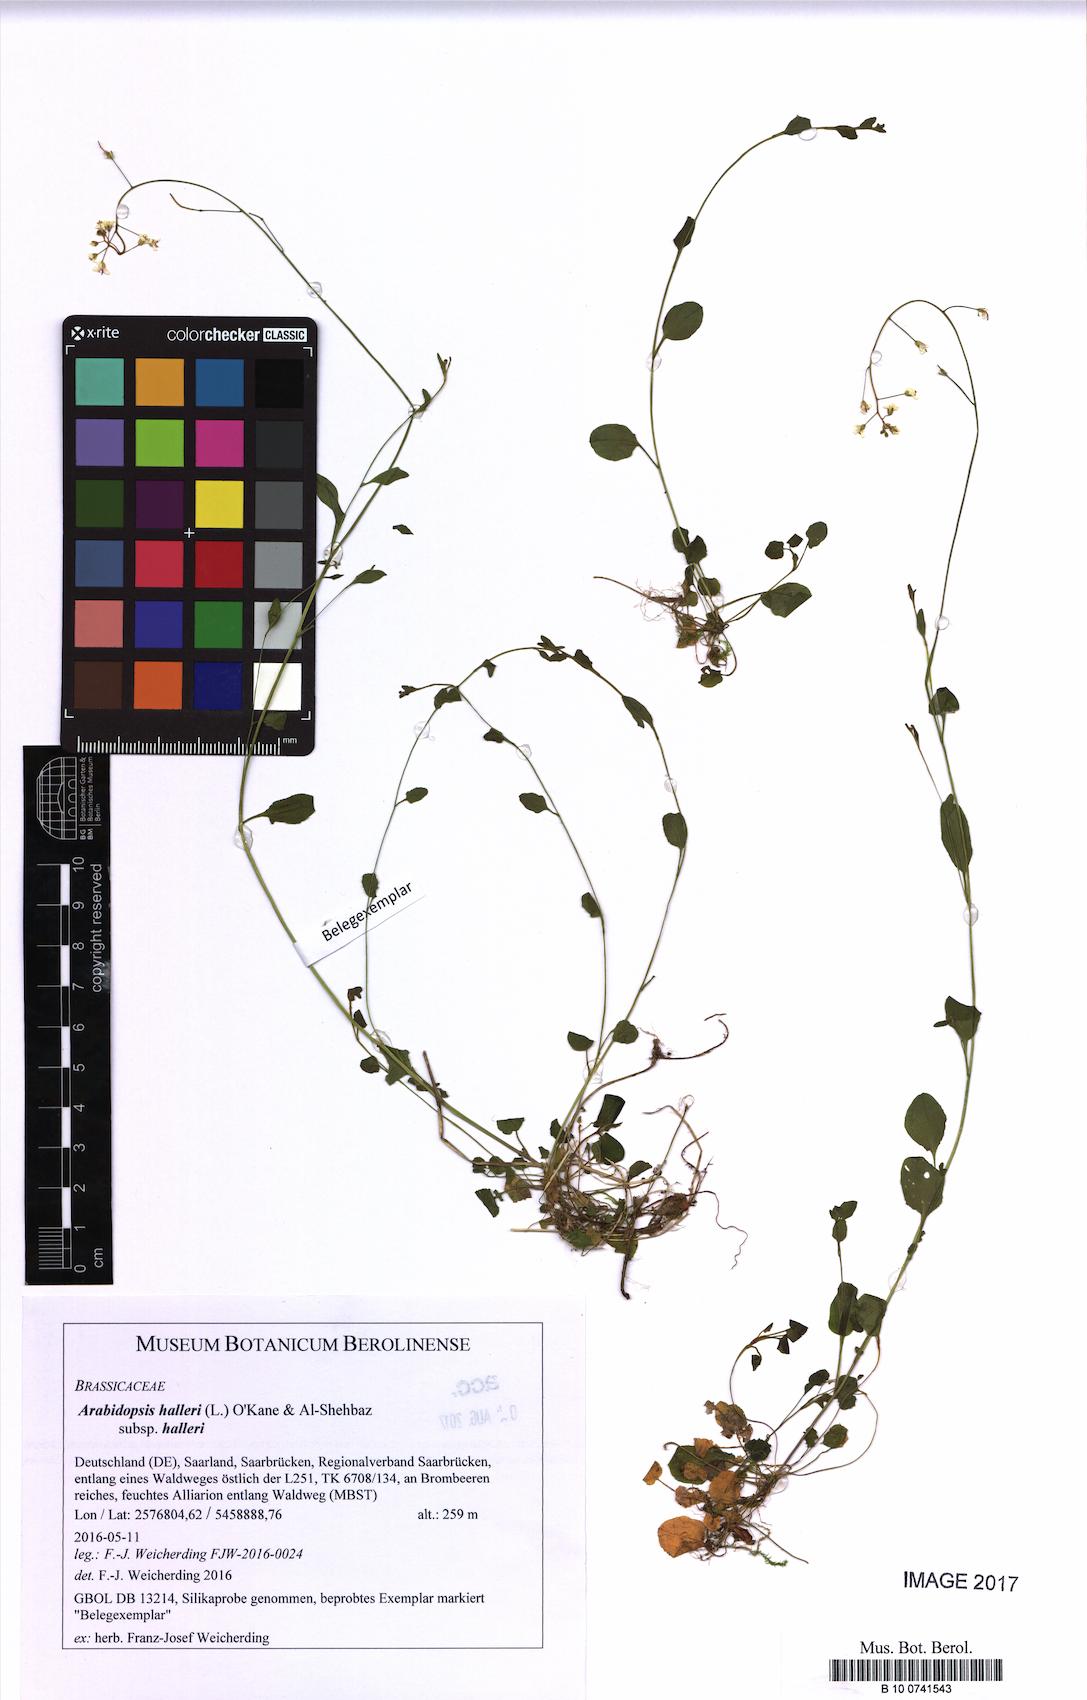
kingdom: Plantae
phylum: Tracheophyta
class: Magnoliopsida
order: Brassicales
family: Brassicaceae
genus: Arabidopsis
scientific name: Arabidopsis halleri
